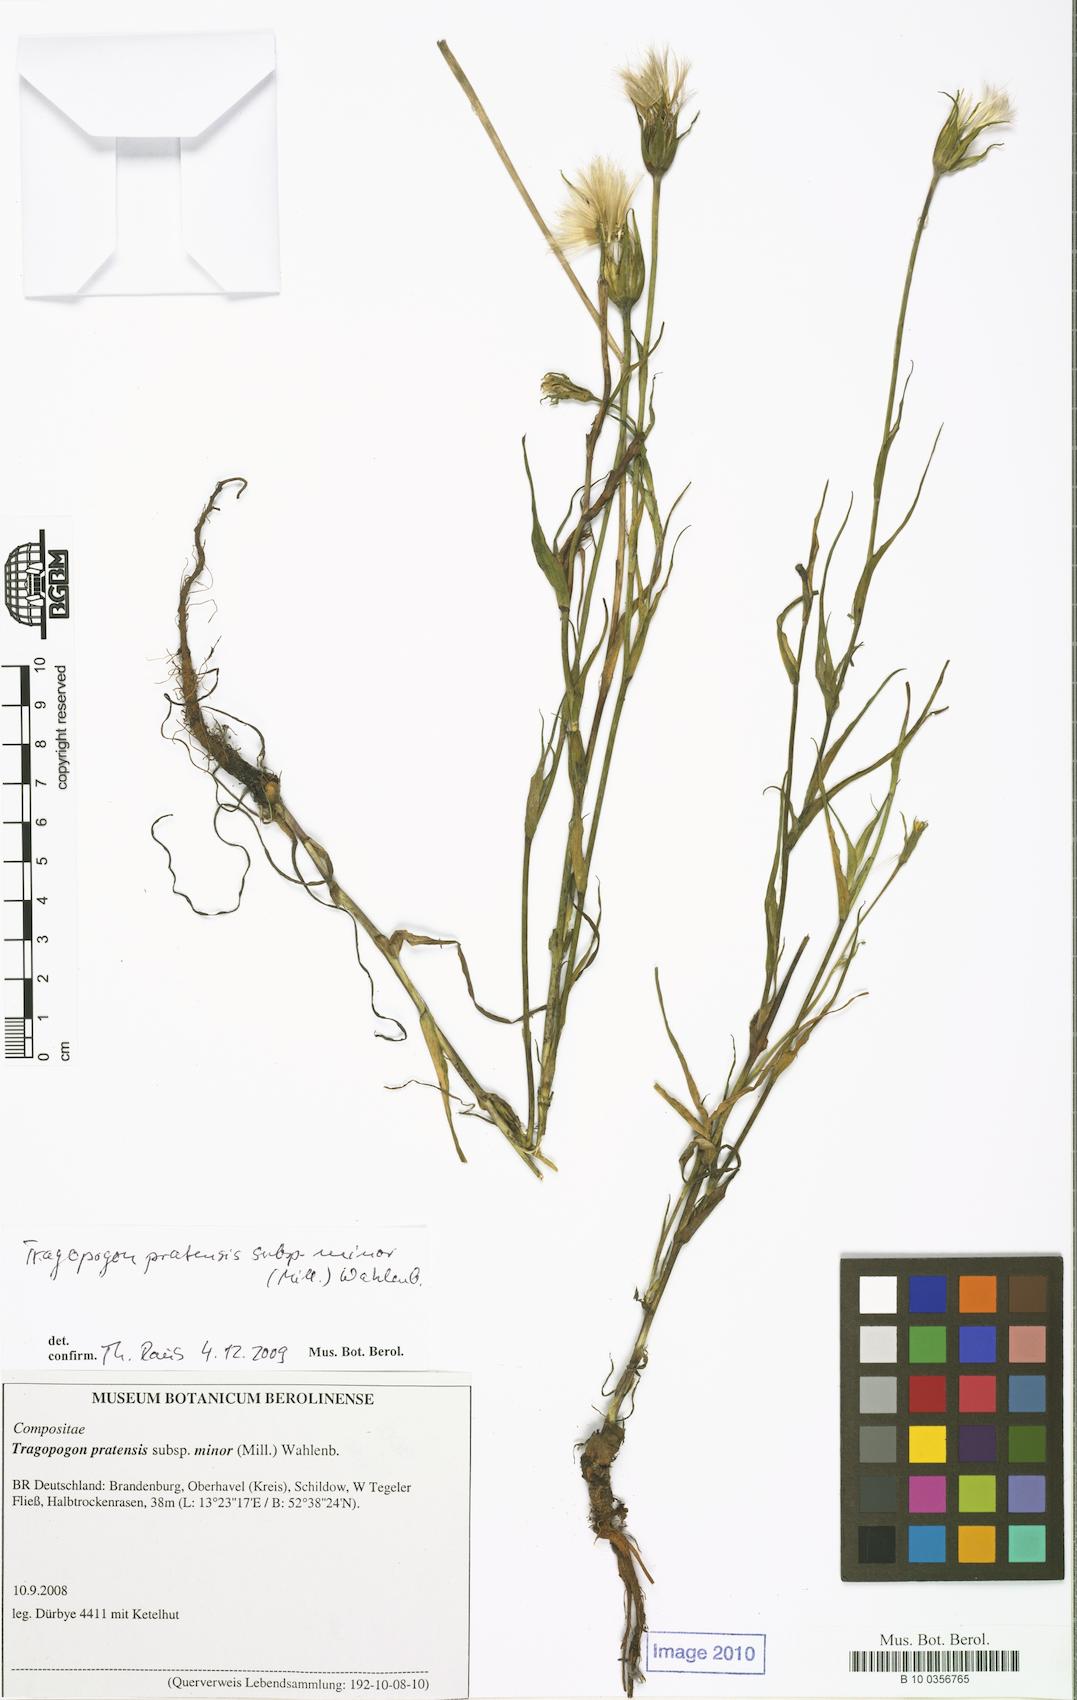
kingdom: Plantae
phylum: Tracheophyta
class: Magnoliopsida
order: Asterales
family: Asteraceae
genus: Tragopogon
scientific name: Tragopogon minor
